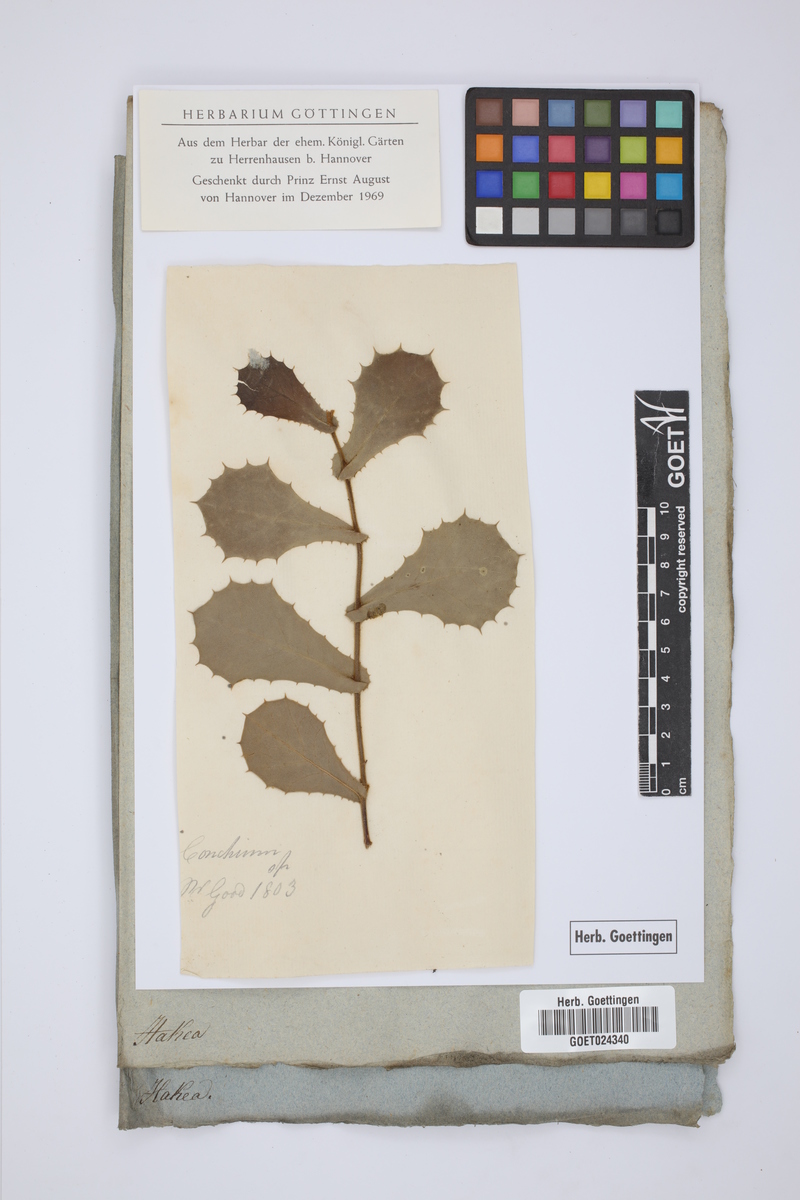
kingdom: Plantae
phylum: Tracheophyta
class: Magnoliopsida
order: Proteales
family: Proteaceae
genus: Hakea
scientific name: Hakea
